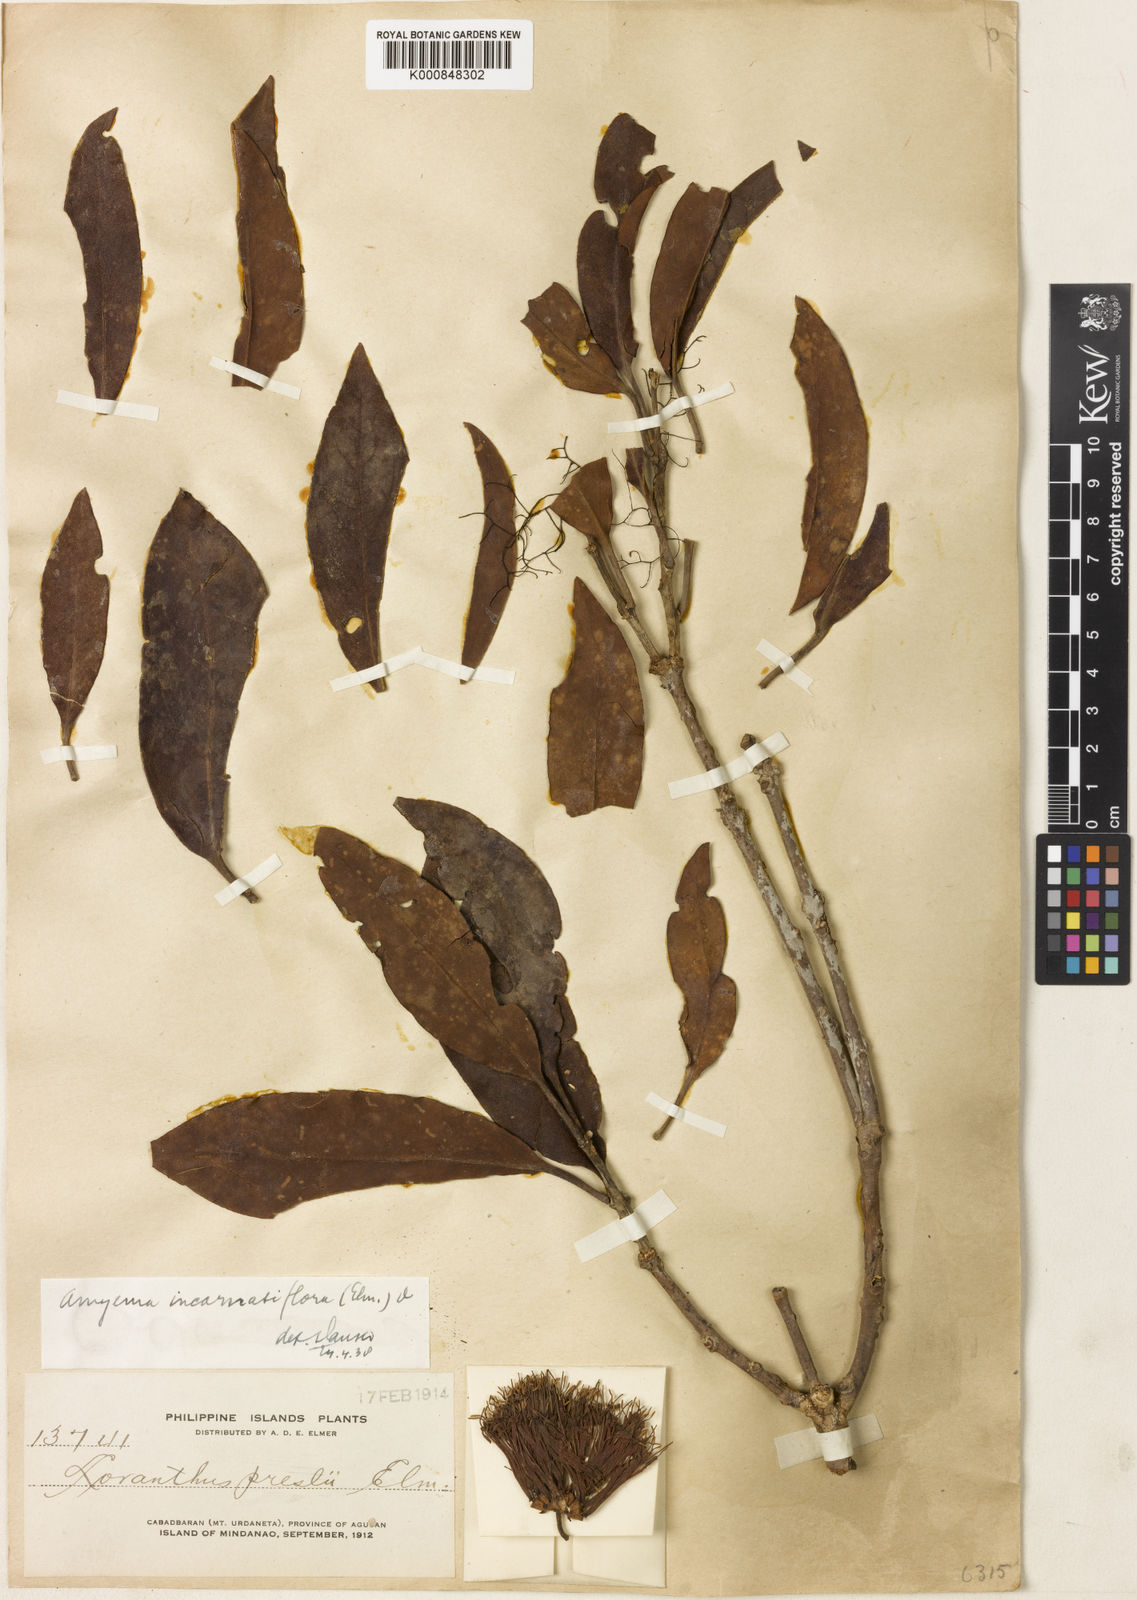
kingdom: Plantae
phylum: Tracheophyta
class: Magnoliopsida
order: Santalales
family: Loranthaceae
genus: Amyema
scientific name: Amyema
